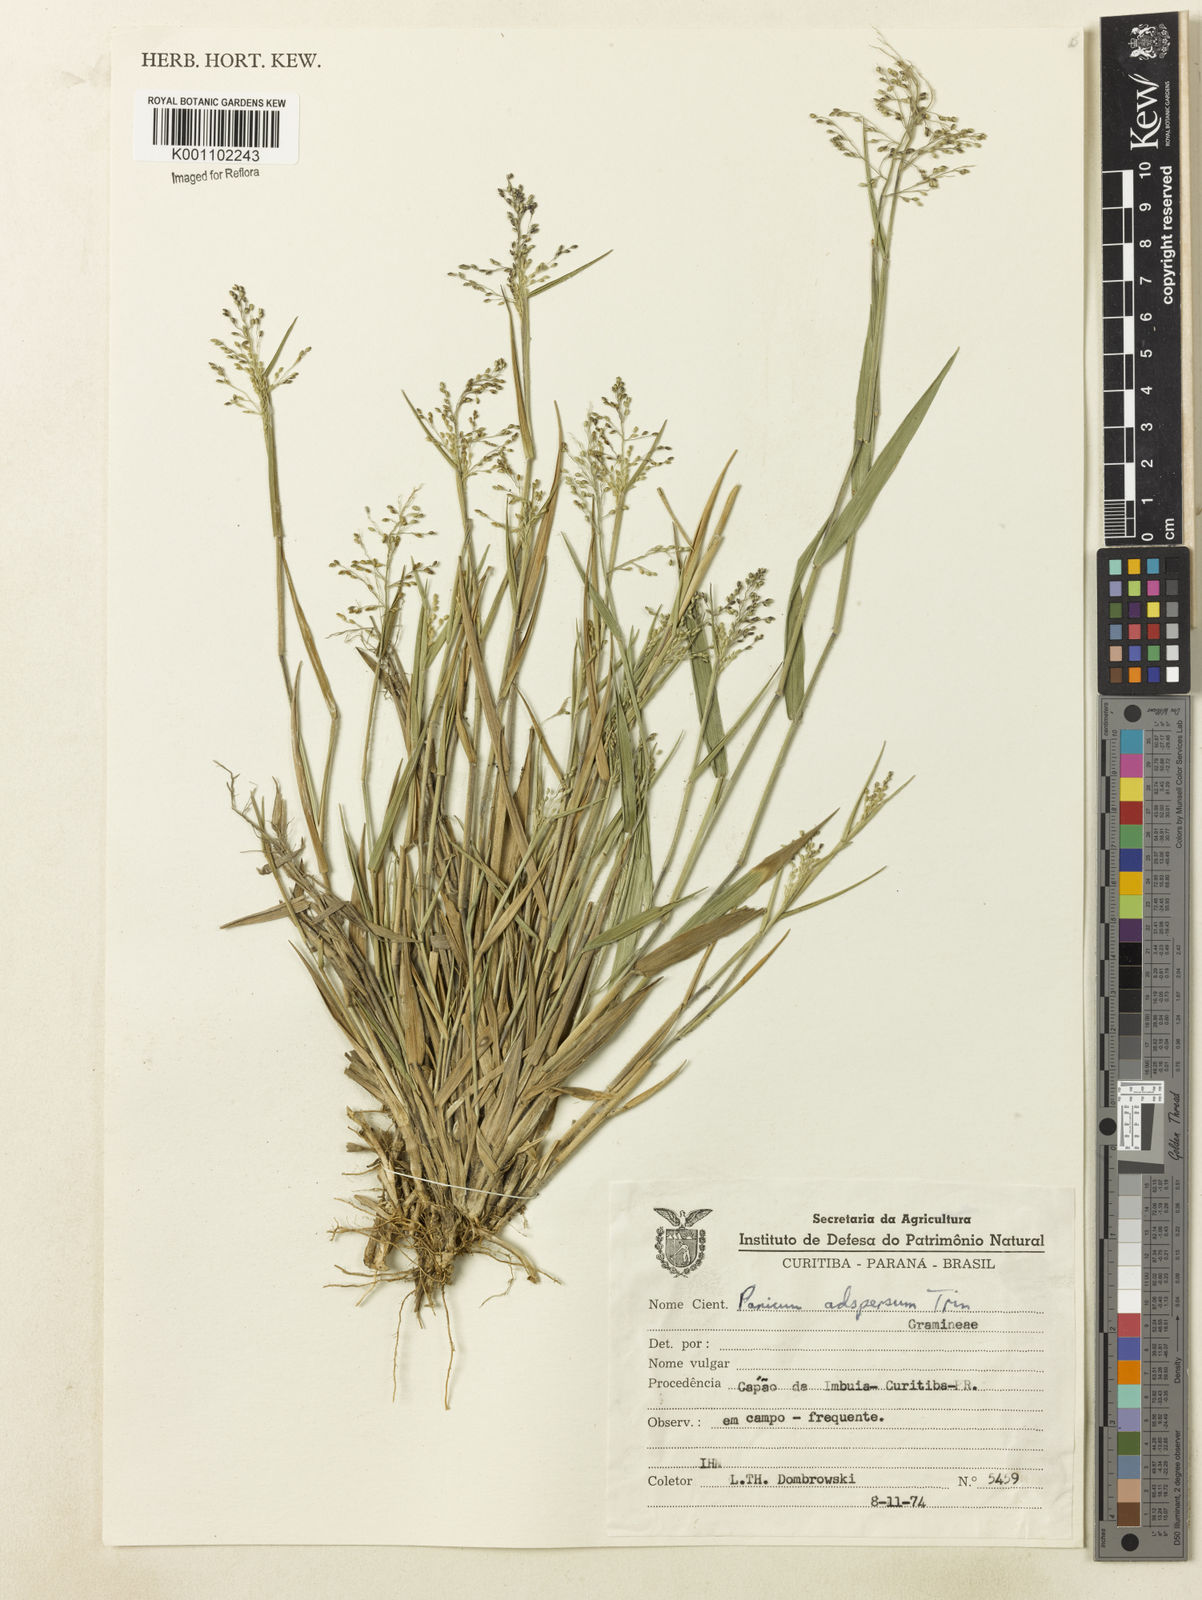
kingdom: Plantae
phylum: Tracheophyta
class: Liliopsida
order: Poales
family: Poaceae
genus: Dichanthelium
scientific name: Dichanthelium sabulorum
